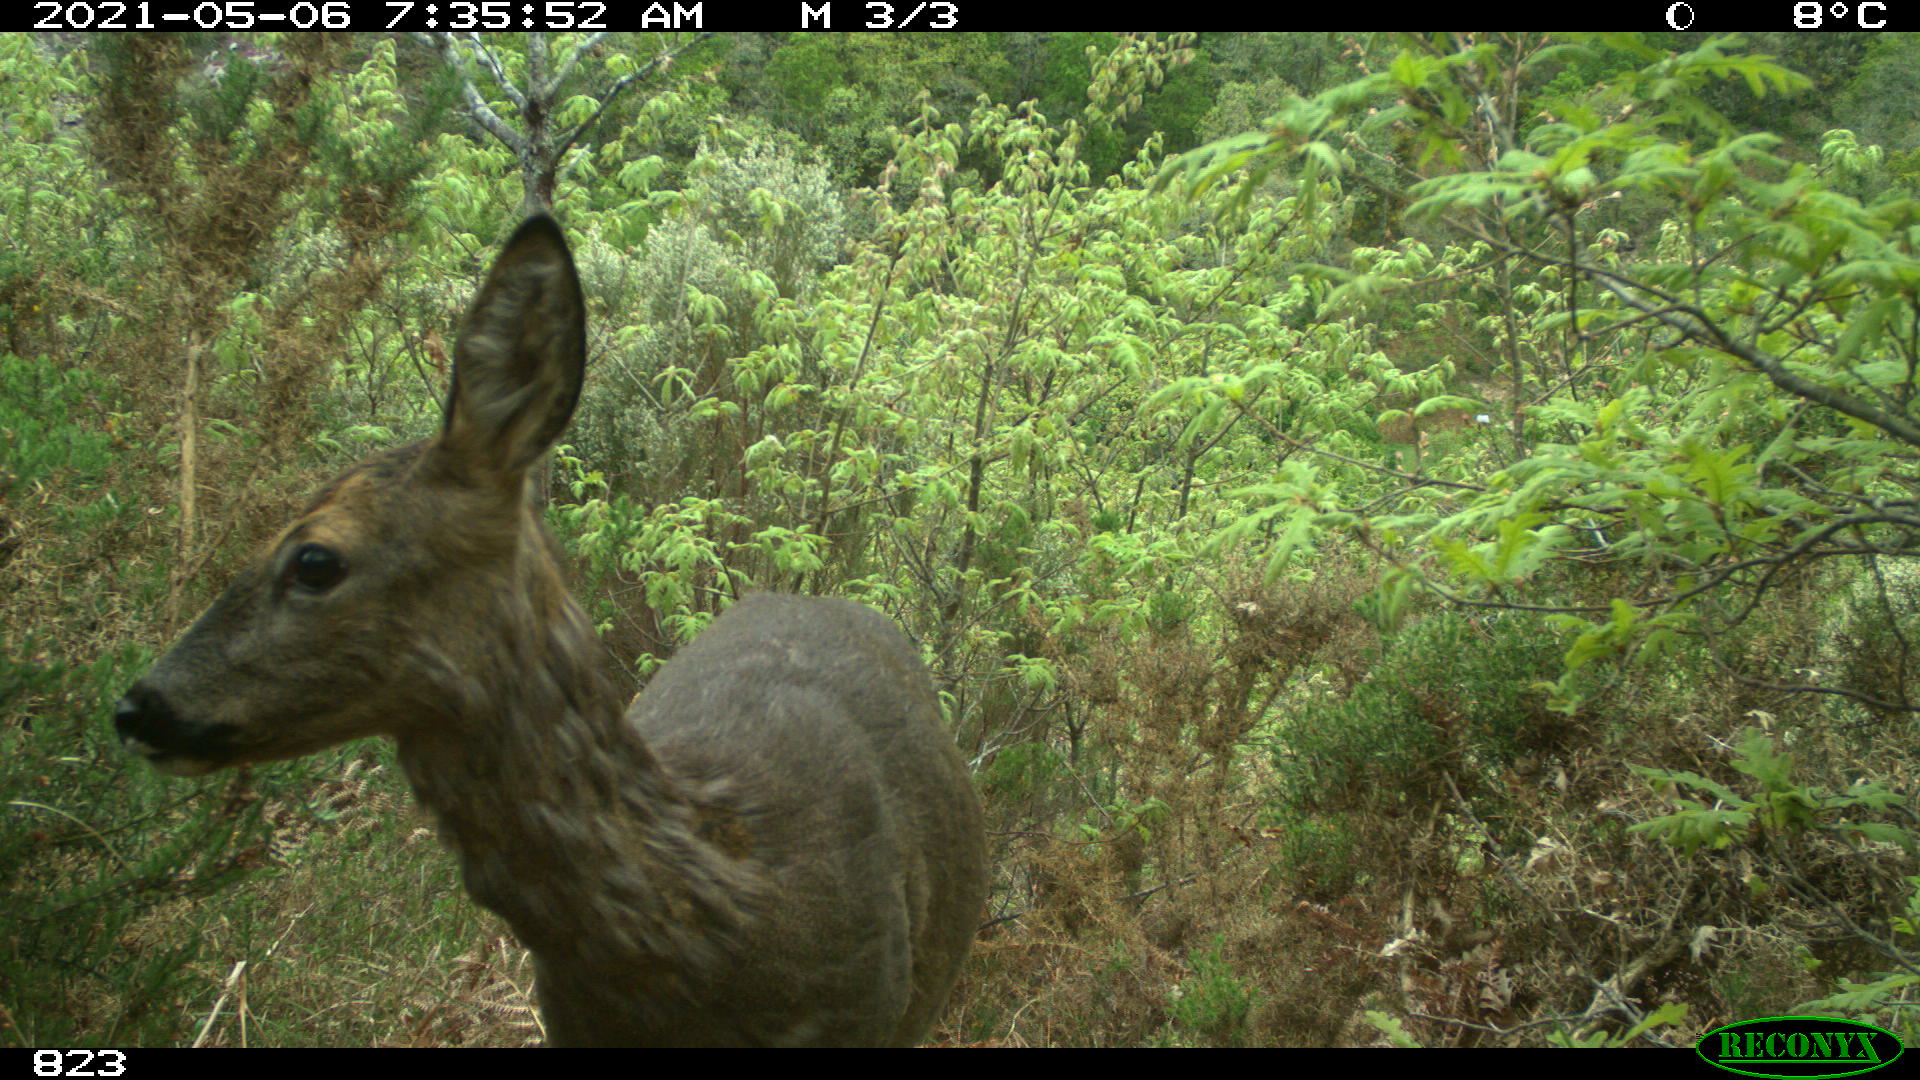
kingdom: Animalia
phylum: Chordata
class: Mammalia
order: Artiodactyla
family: Cervidae
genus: Capreolus
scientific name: Capreolus capreolus
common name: Western roe deer
